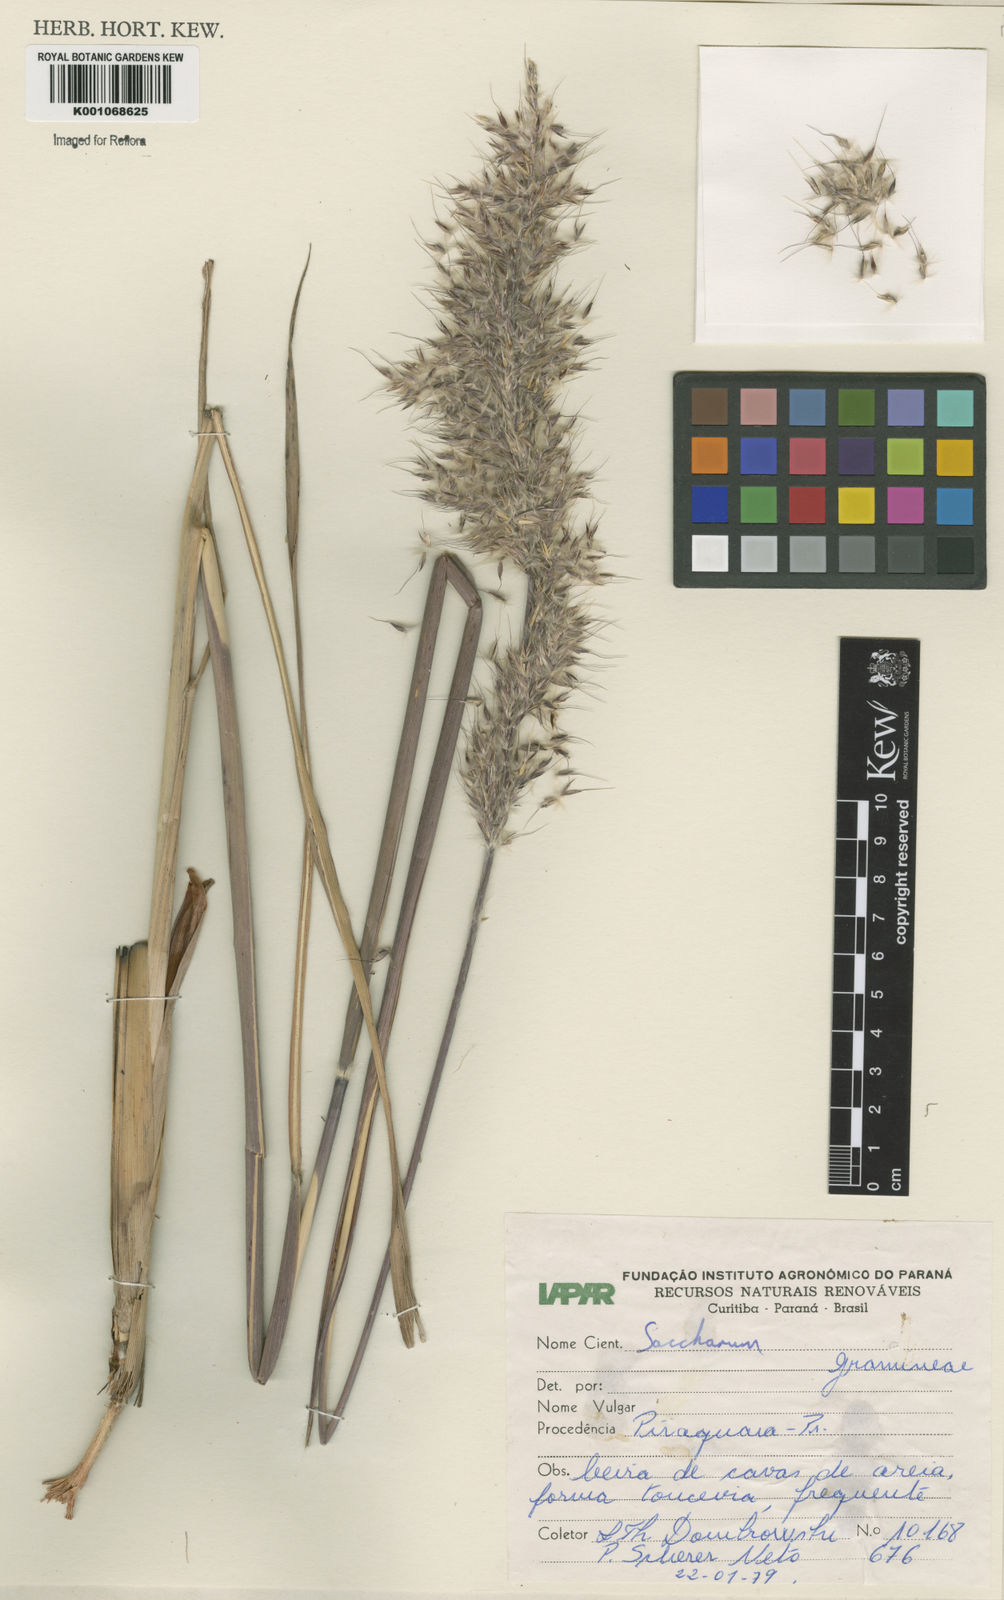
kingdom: Plantae
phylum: Tracheophyta
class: Liliopsida
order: Poales
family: Poaceae
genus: Saccharum
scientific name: Saccharum angustifolium
